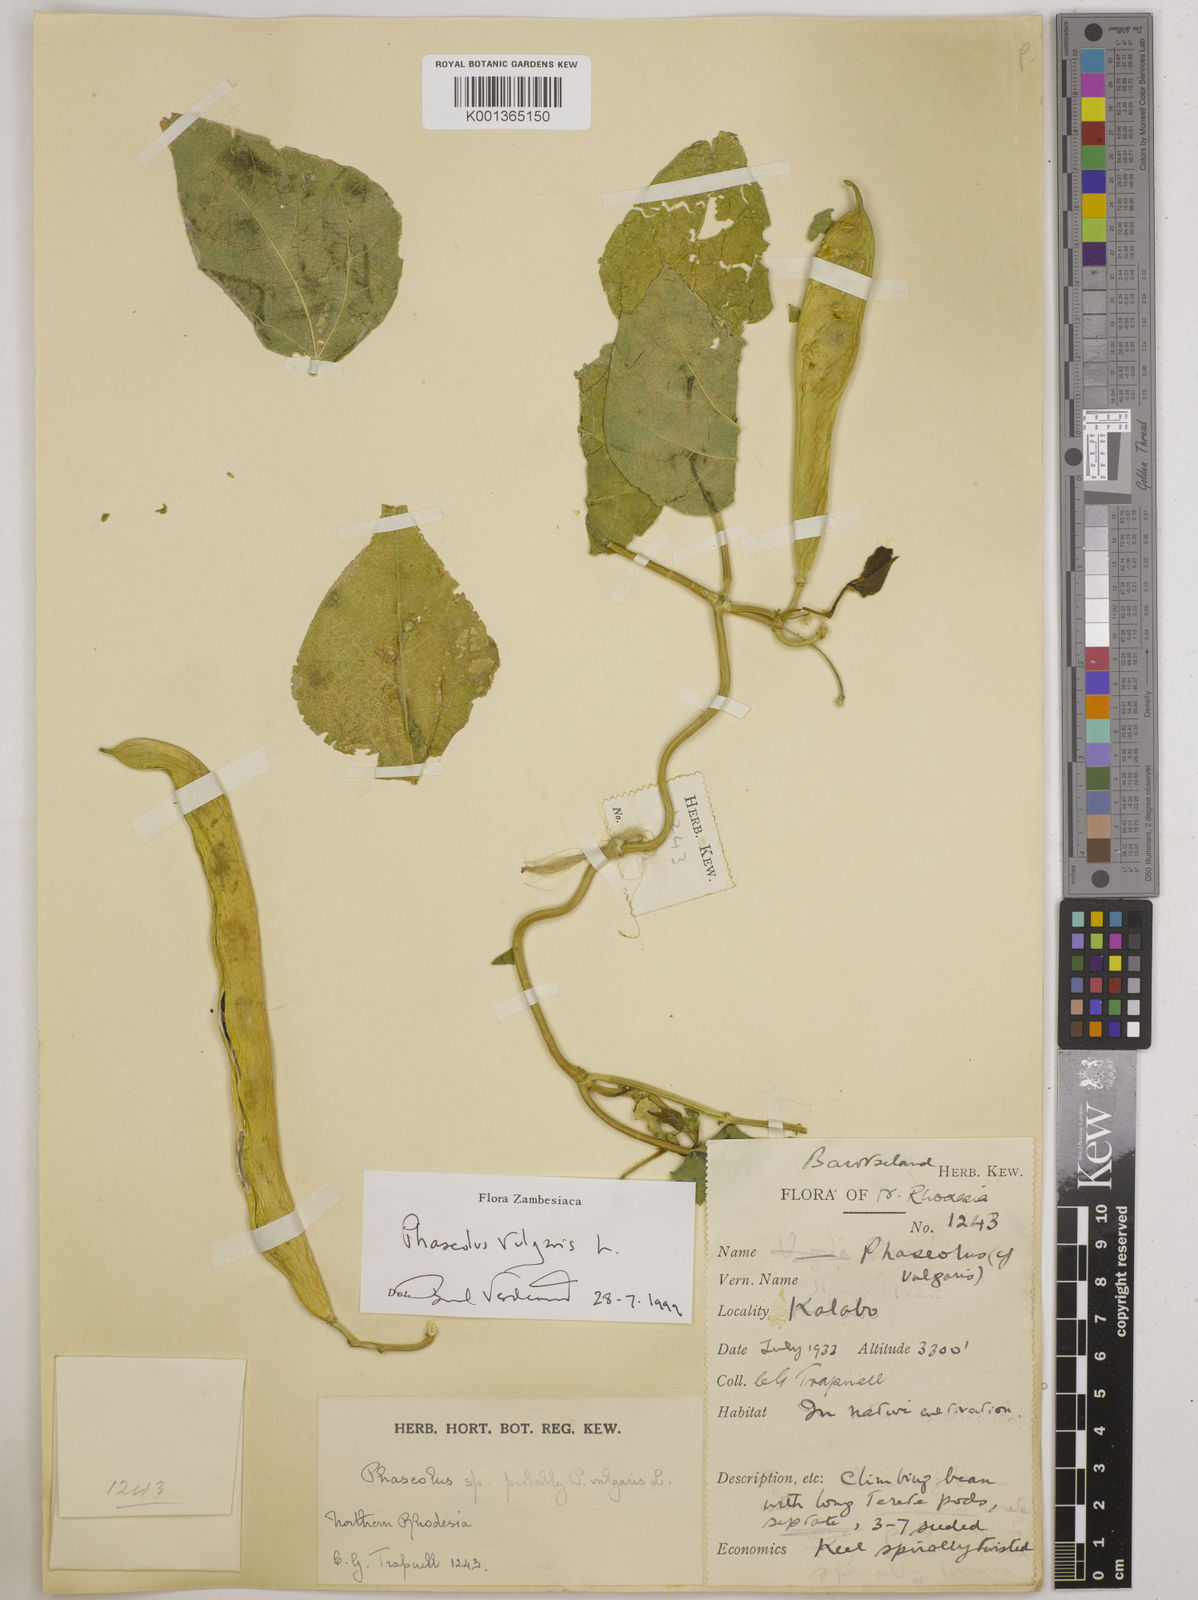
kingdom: Plantae
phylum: Tracheophyta
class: Magnoliopsida
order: Fabales
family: Fabaceae
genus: Phaseolus
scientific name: Phaseolus vulgaris
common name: Bean
